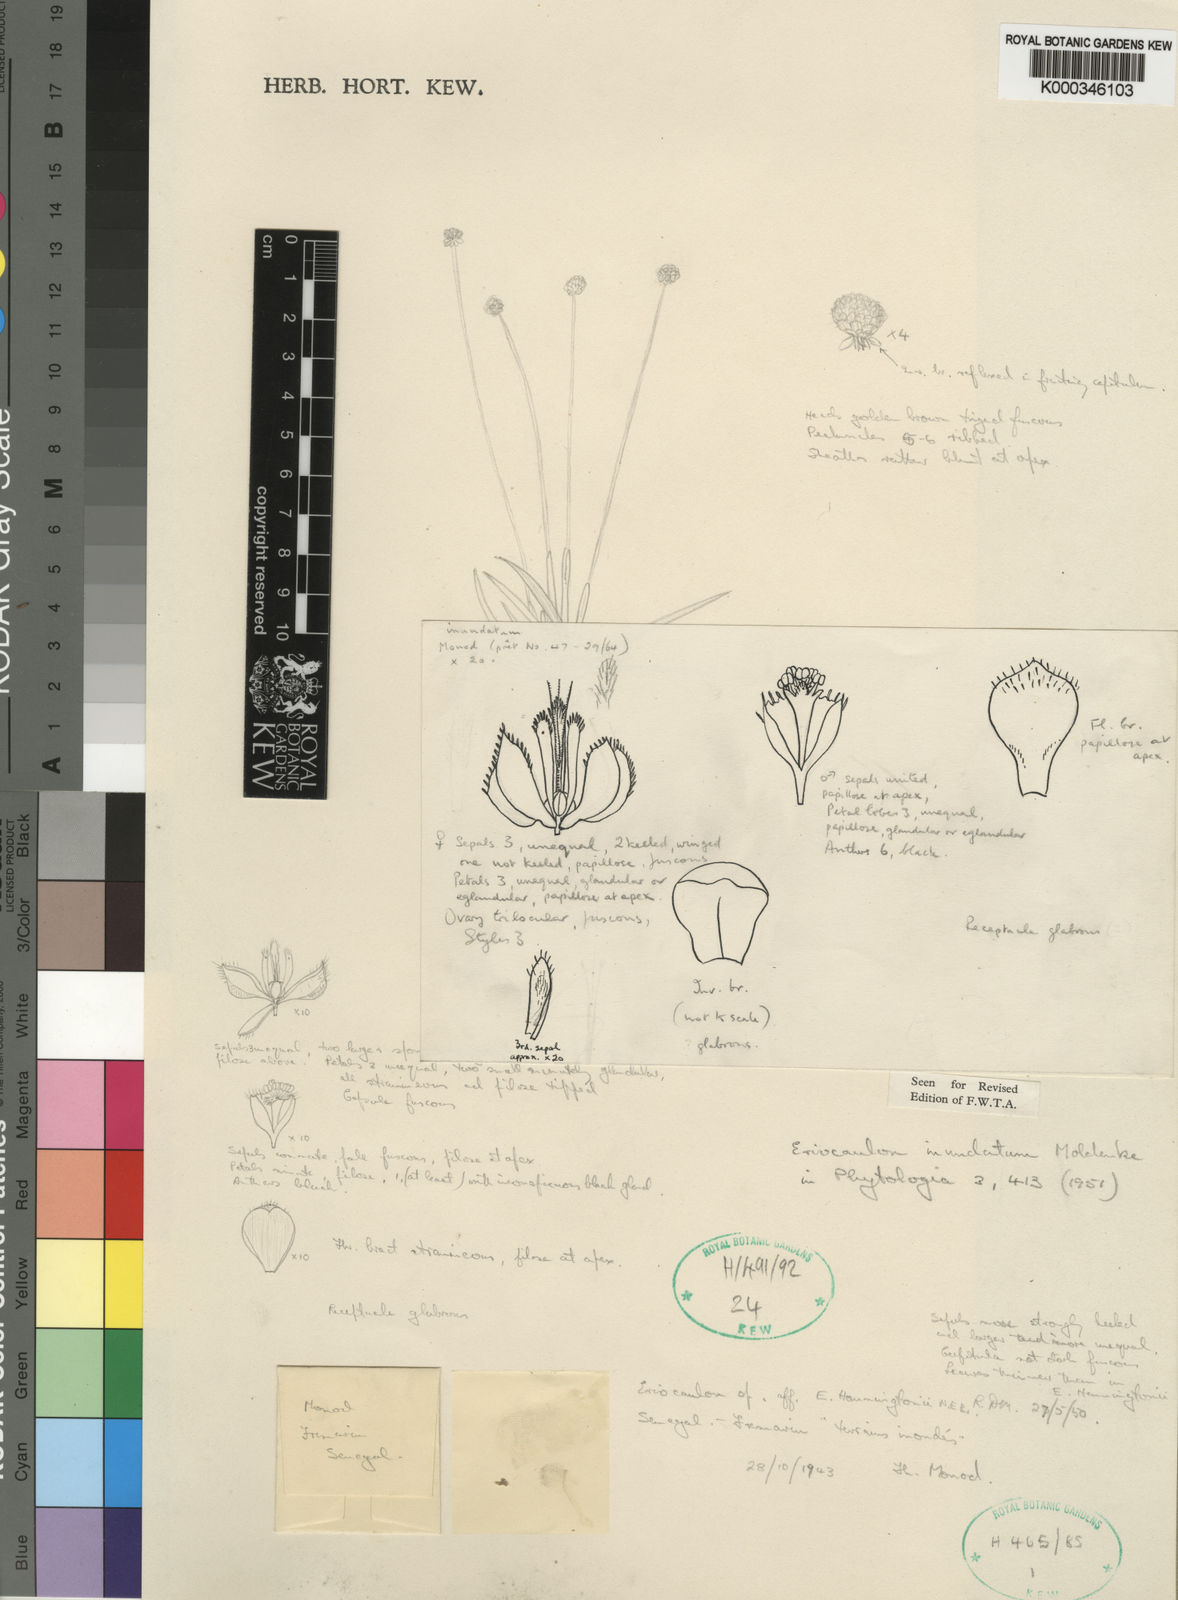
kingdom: Plantae
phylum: Tracheophyta
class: Liliopsida
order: Poales
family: Eriocaulaceae
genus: Eriocaulon
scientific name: Eriocaulon inundatum
